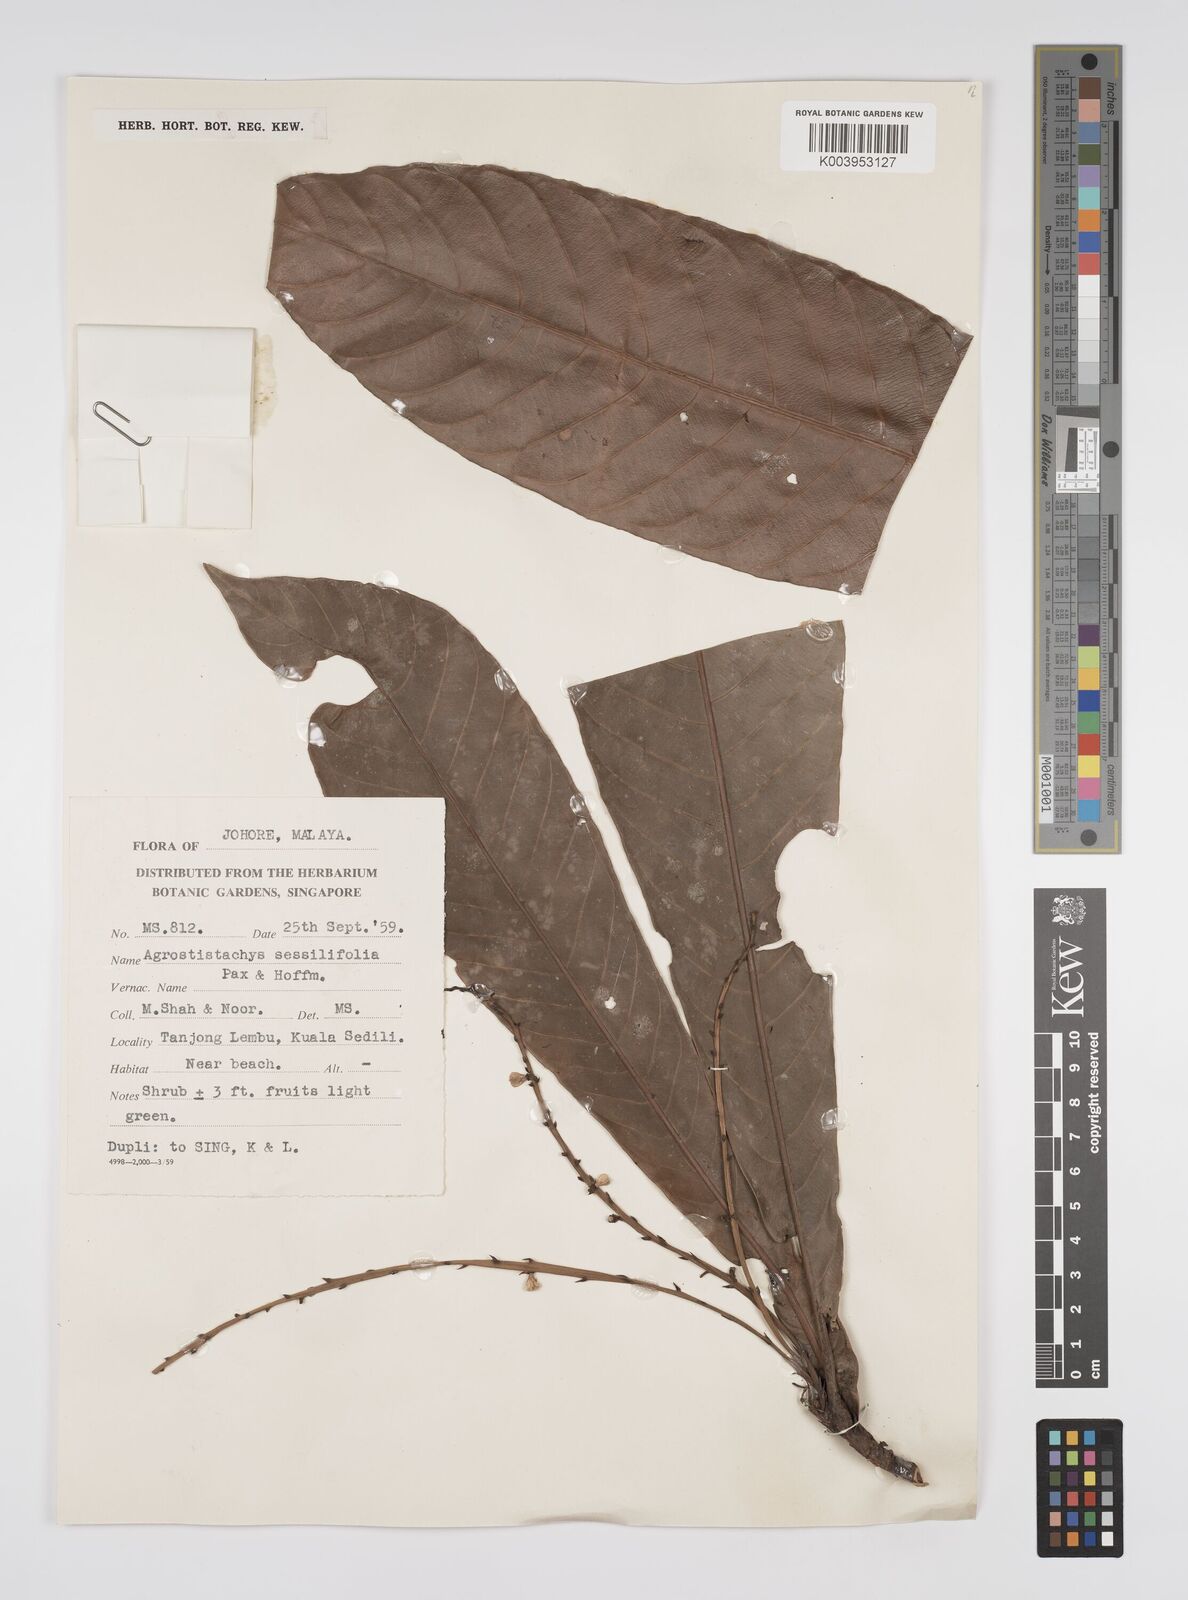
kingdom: Plantae
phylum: Tracheophyta
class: Magnoliopsida
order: Malpighiales
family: Euphorbiaceae
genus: Agrostistachys
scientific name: Agrostistachys sessilifolia
